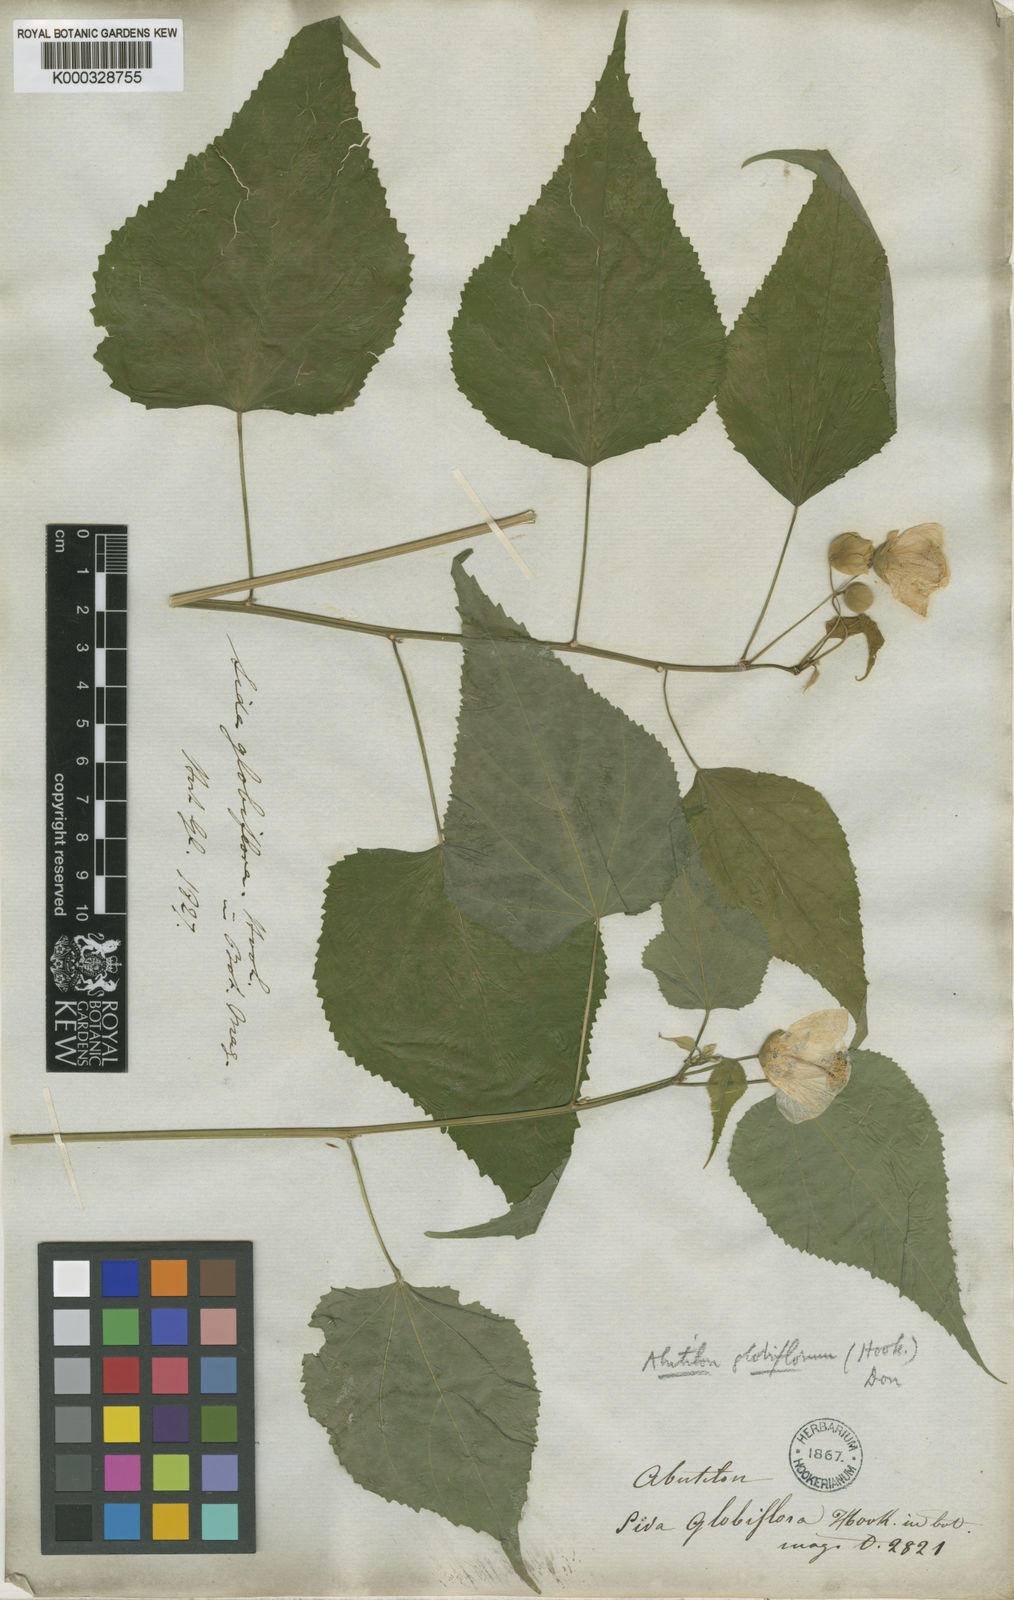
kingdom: Plantae
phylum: Tracheophyta
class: Magnoliopsida
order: Malvales
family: Malvaceae
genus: Sida
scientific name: Sida glomerata
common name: Clustered fanpetals
